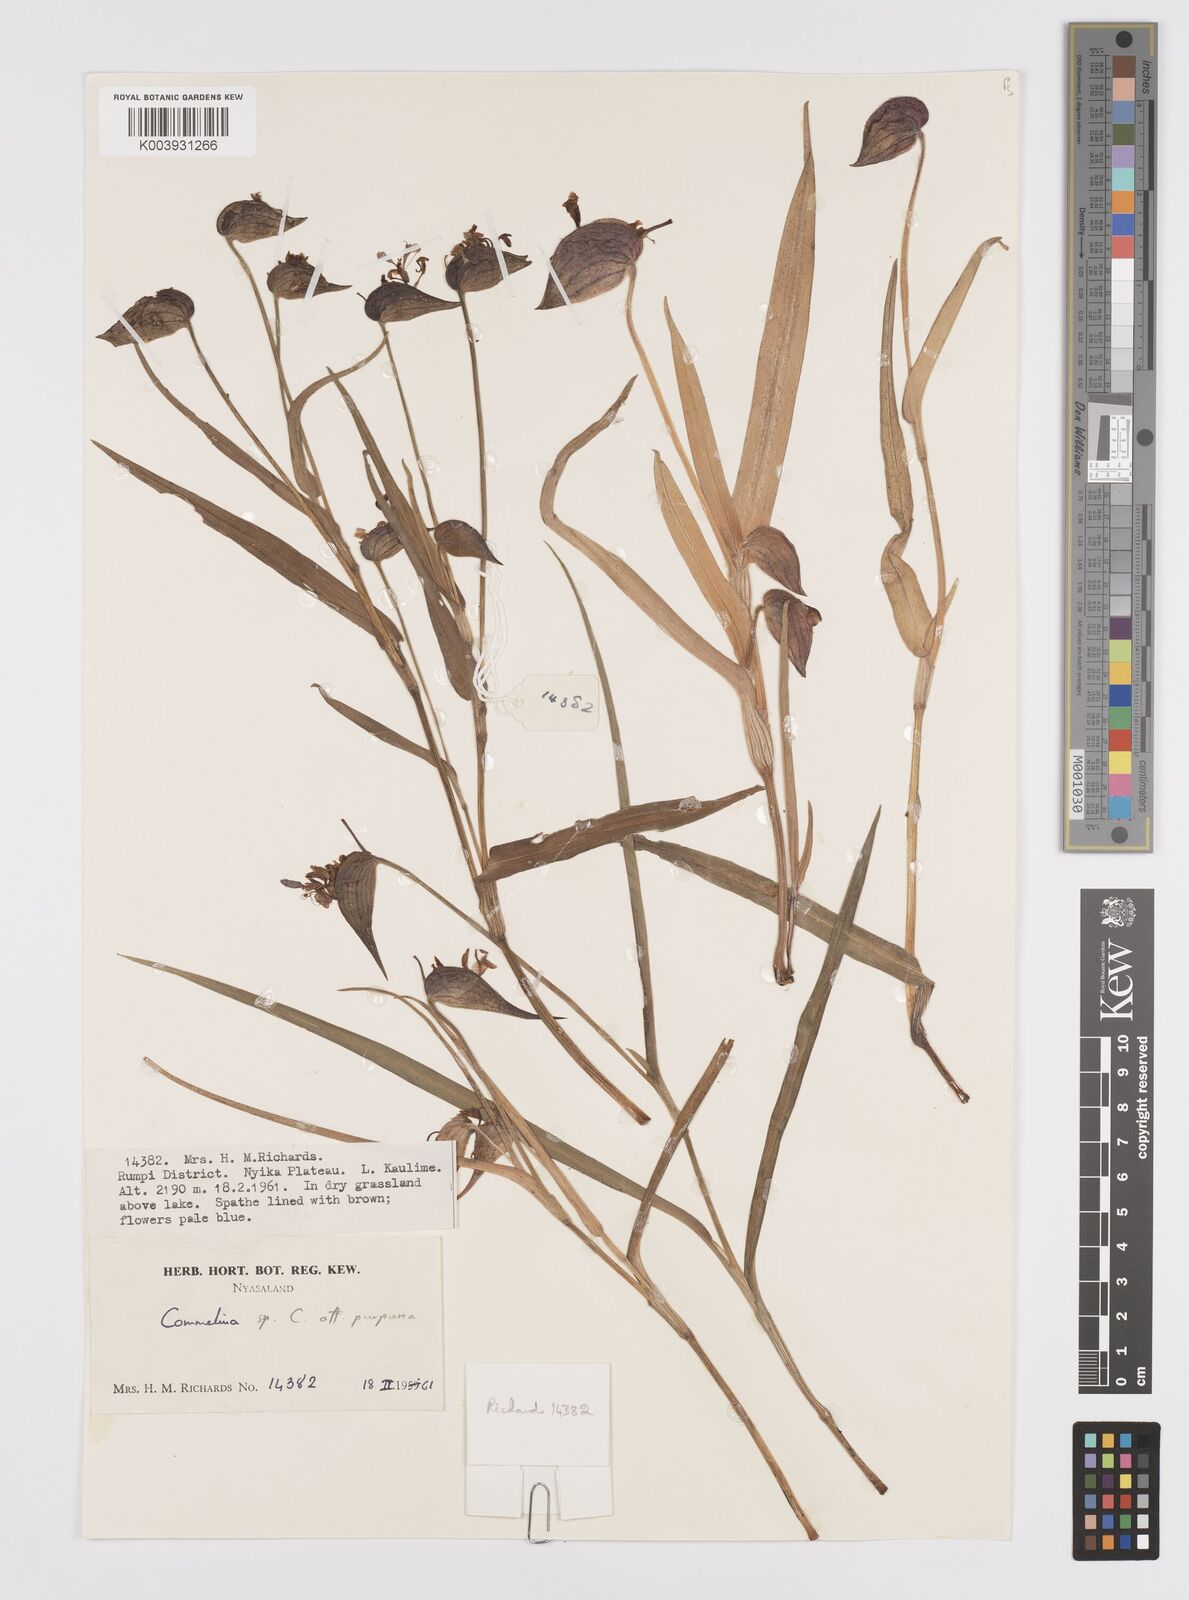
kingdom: Plantae
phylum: Tracheophyta
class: Liliopsida
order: Commelinales
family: Commelinaceae
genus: Commelina
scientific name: Commelina kituloensis
